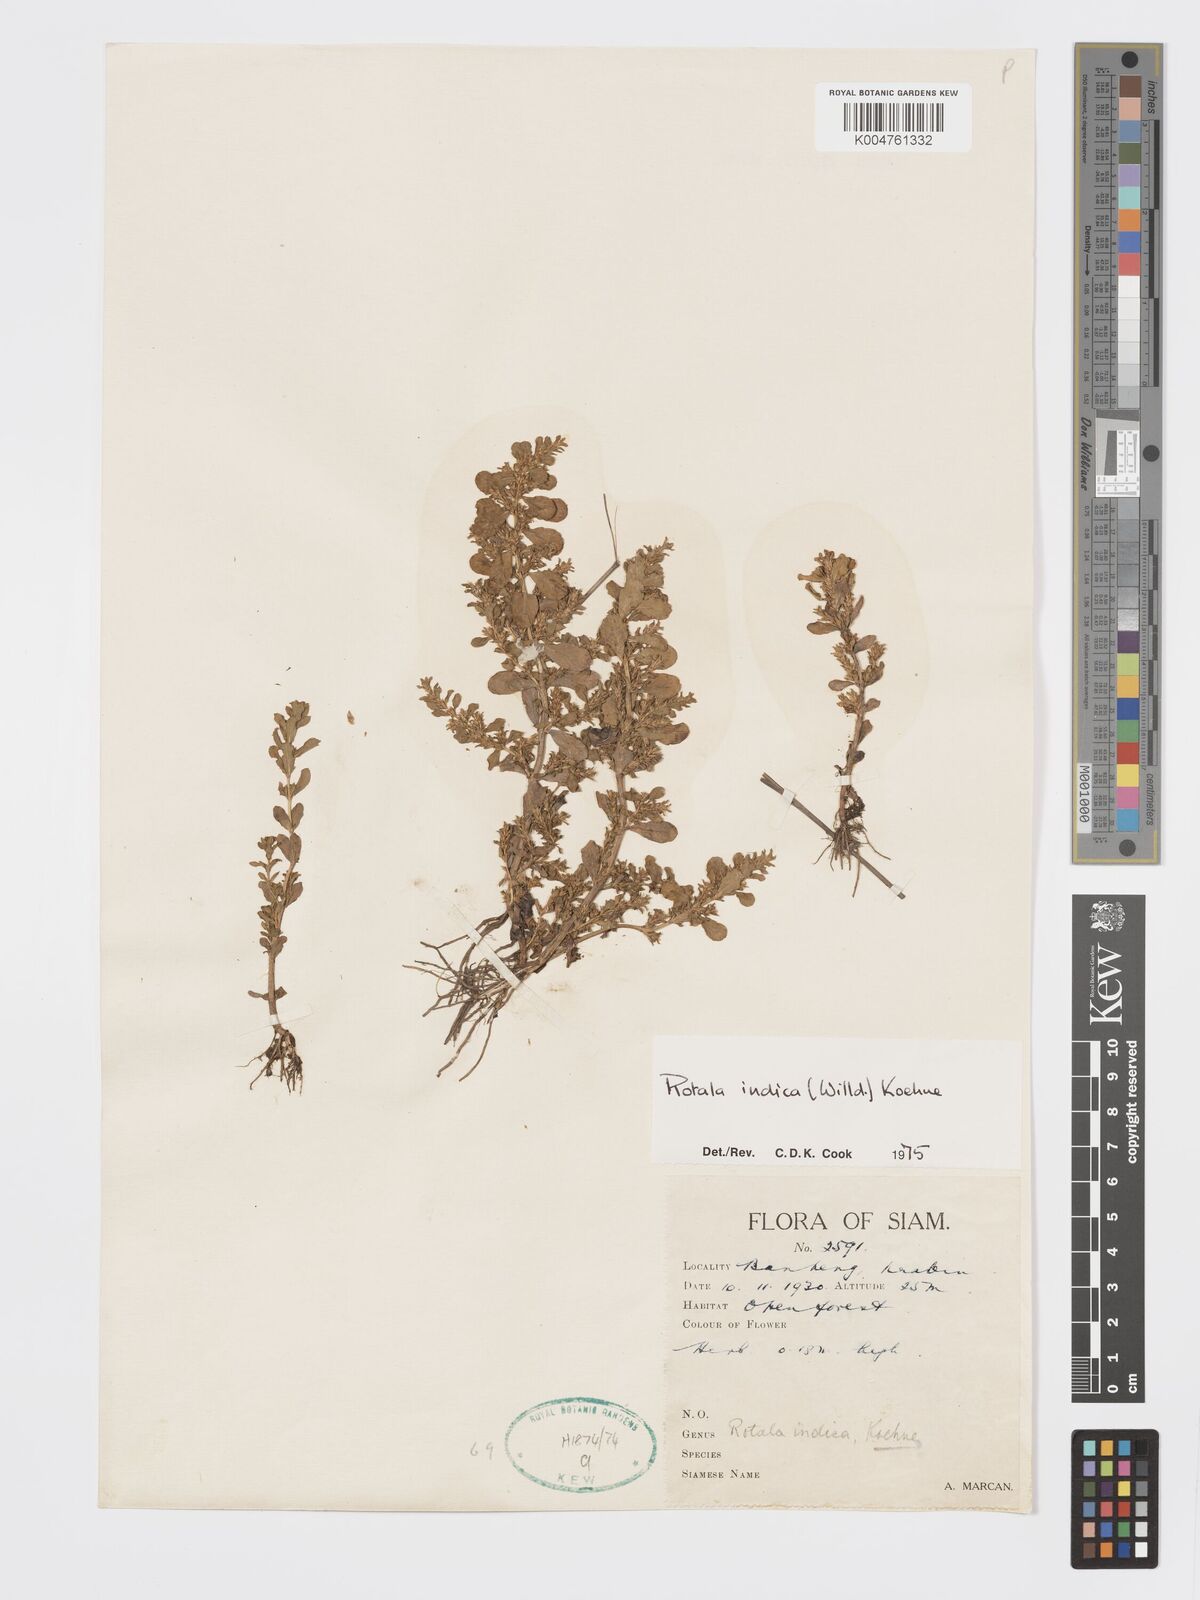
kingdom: Plantae
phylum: Tracheophyta
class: Magnoliopsida
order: Myrtales
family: Lythraceae
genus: Rotala
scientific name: Rotala indica
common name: Indian toothcup
